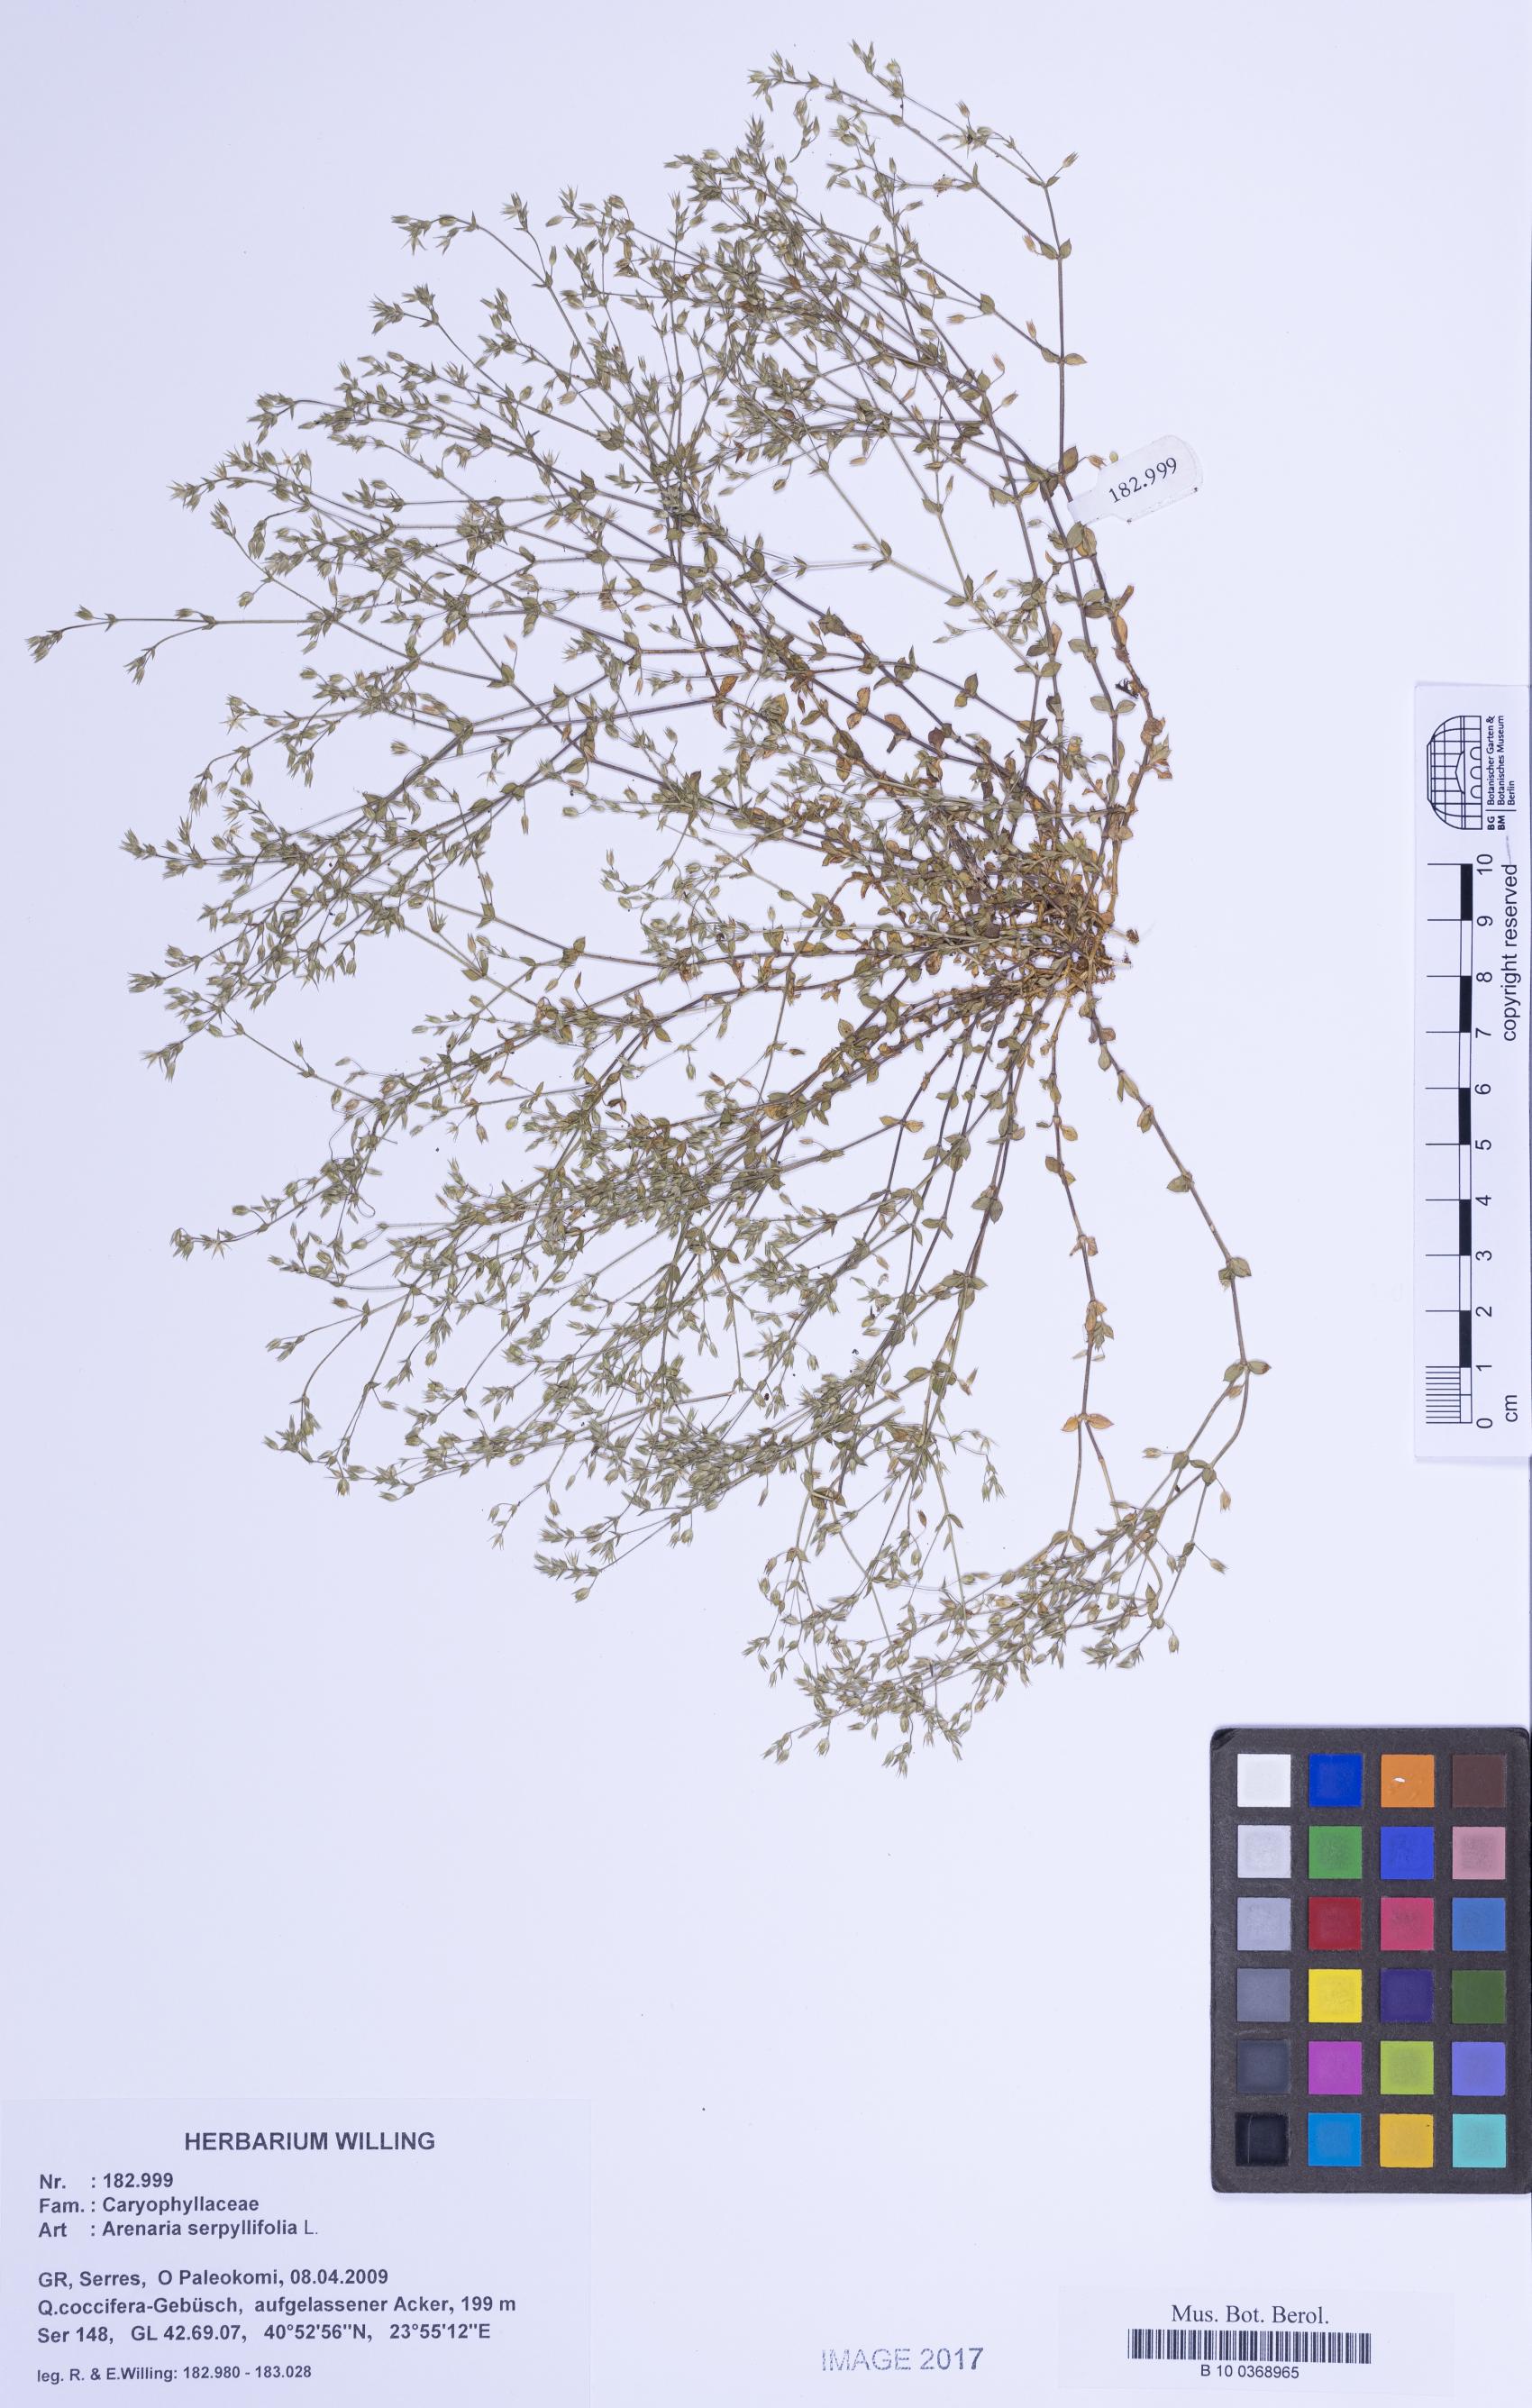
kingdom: Plantae
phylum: Tracheophyta
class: Magnoliopsida
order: Caryophyllales
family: Caryophyllaceae
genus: Arenaria
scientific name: Arenaria serpyllifolia
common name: Thyme-leaved sandwort
